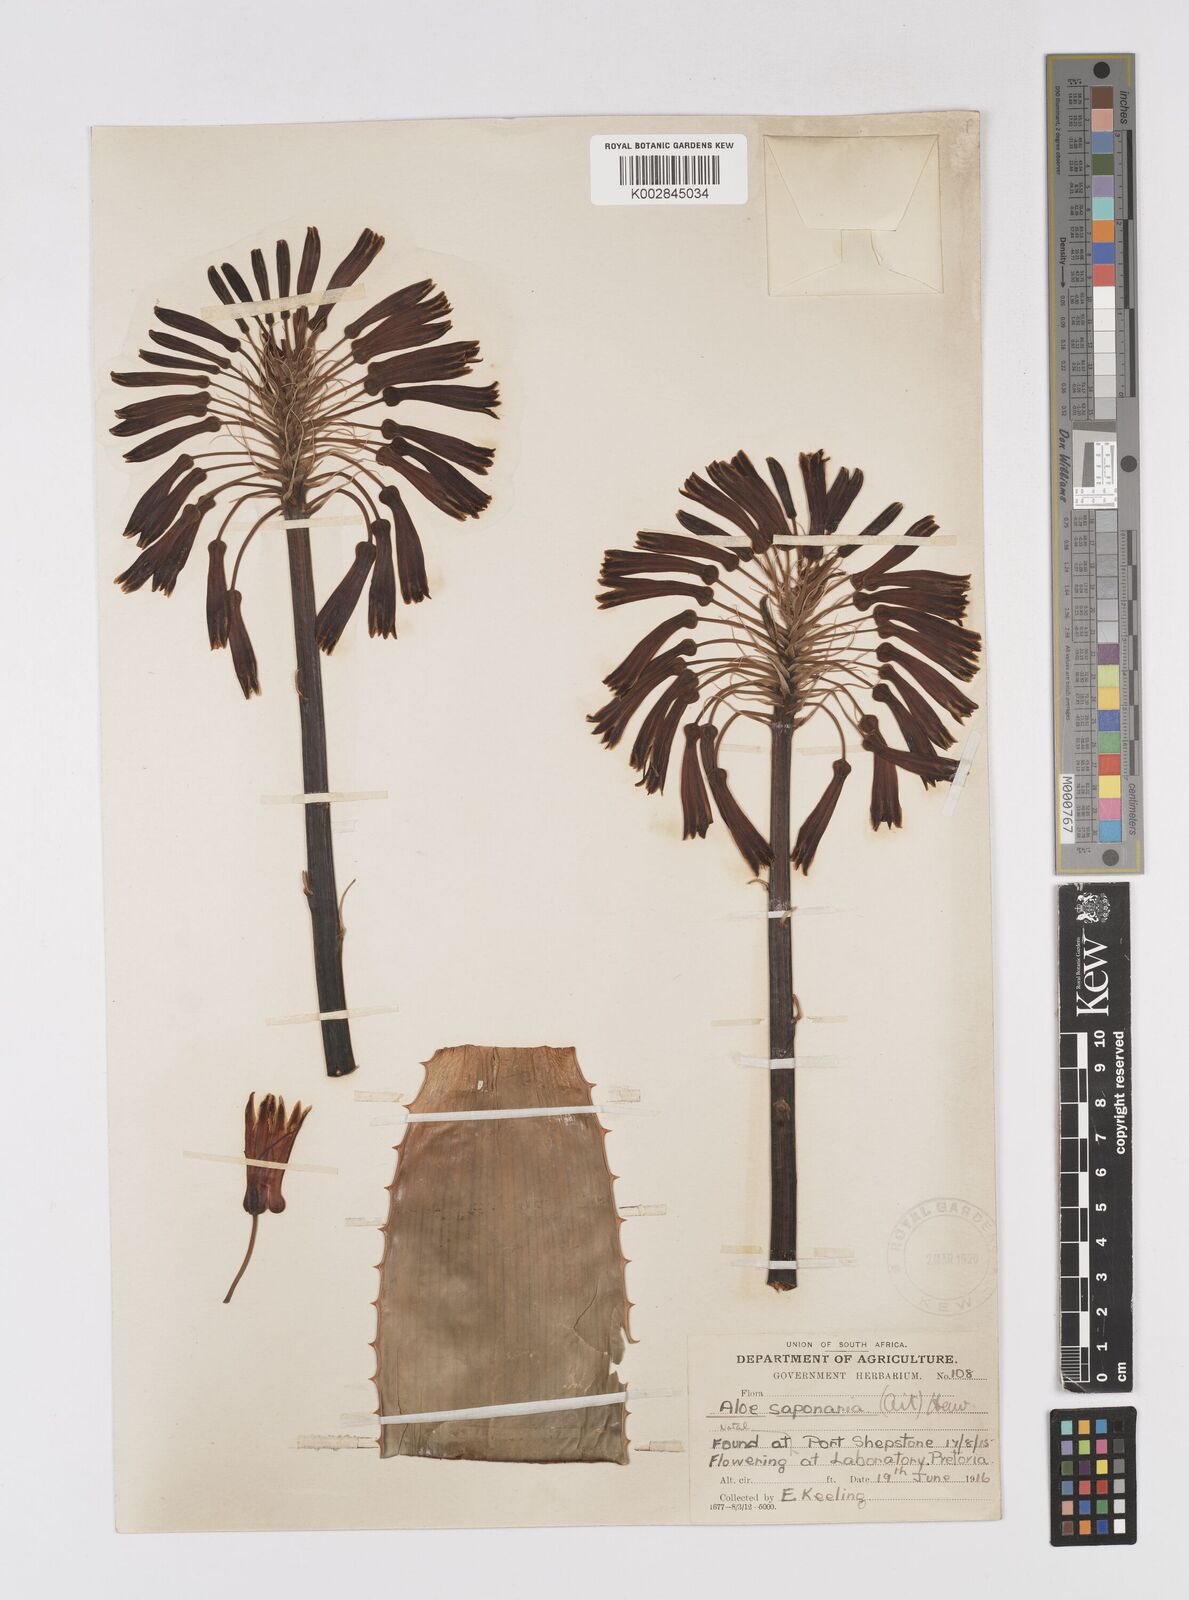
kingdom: Plantae
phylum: Tracheophyta
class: Liliopsida
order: Asparagales
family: Asphodelaceae
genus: Aloe
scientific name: Aloe maculata
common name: Broadleaf aloe
